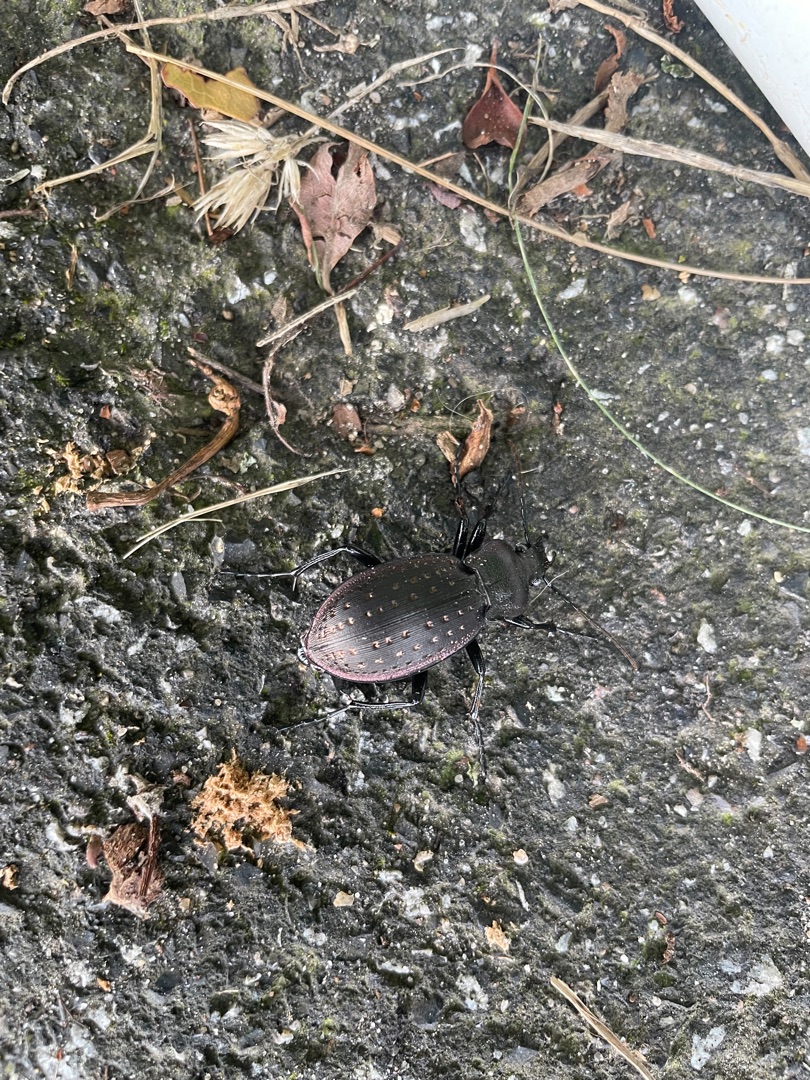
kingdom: Animalia
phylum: Arthropoda
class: Insecta
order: Coleoptera
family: Carabidae
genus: Carabus
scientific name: Carabus hortensis
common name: Guldpletløber
